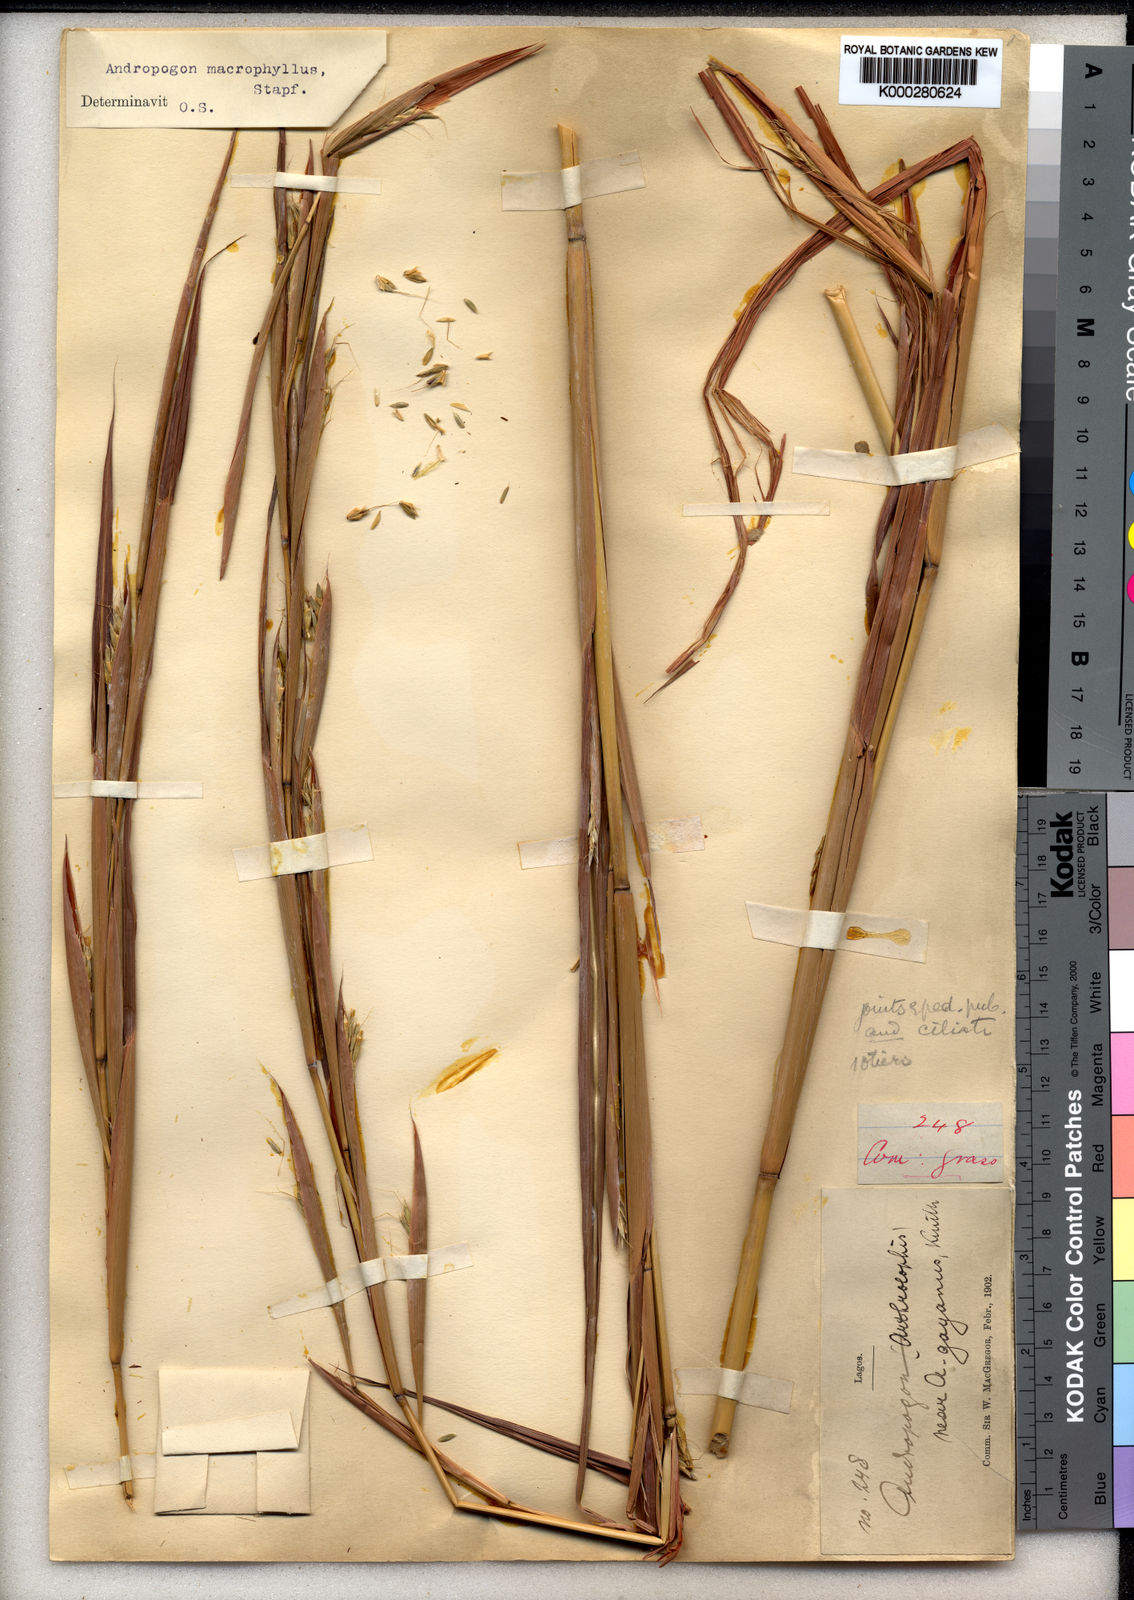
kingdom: Plantae
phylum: Tracheophyta
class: Liliopsida
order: Poales
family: Poaceae
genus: Andropogon
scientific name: Andropogon macrophyllus
